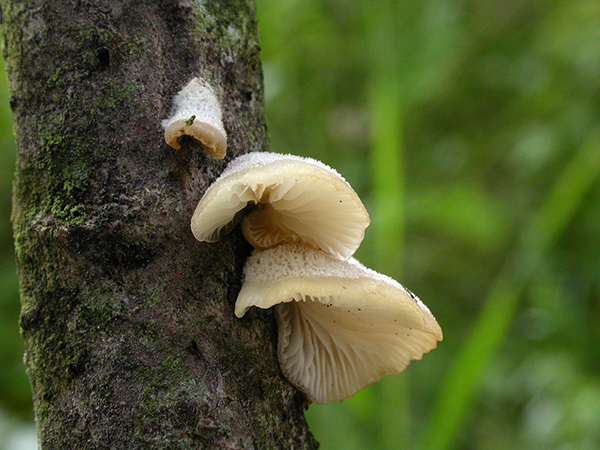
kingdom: Fungi
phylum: Basidiomycota
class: Agaricomycetes
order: Agaricales
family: Pleurotaceae
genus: Hohenbuehelia
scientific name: Hohenbuehelia fluxilis
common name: pile-filthat
